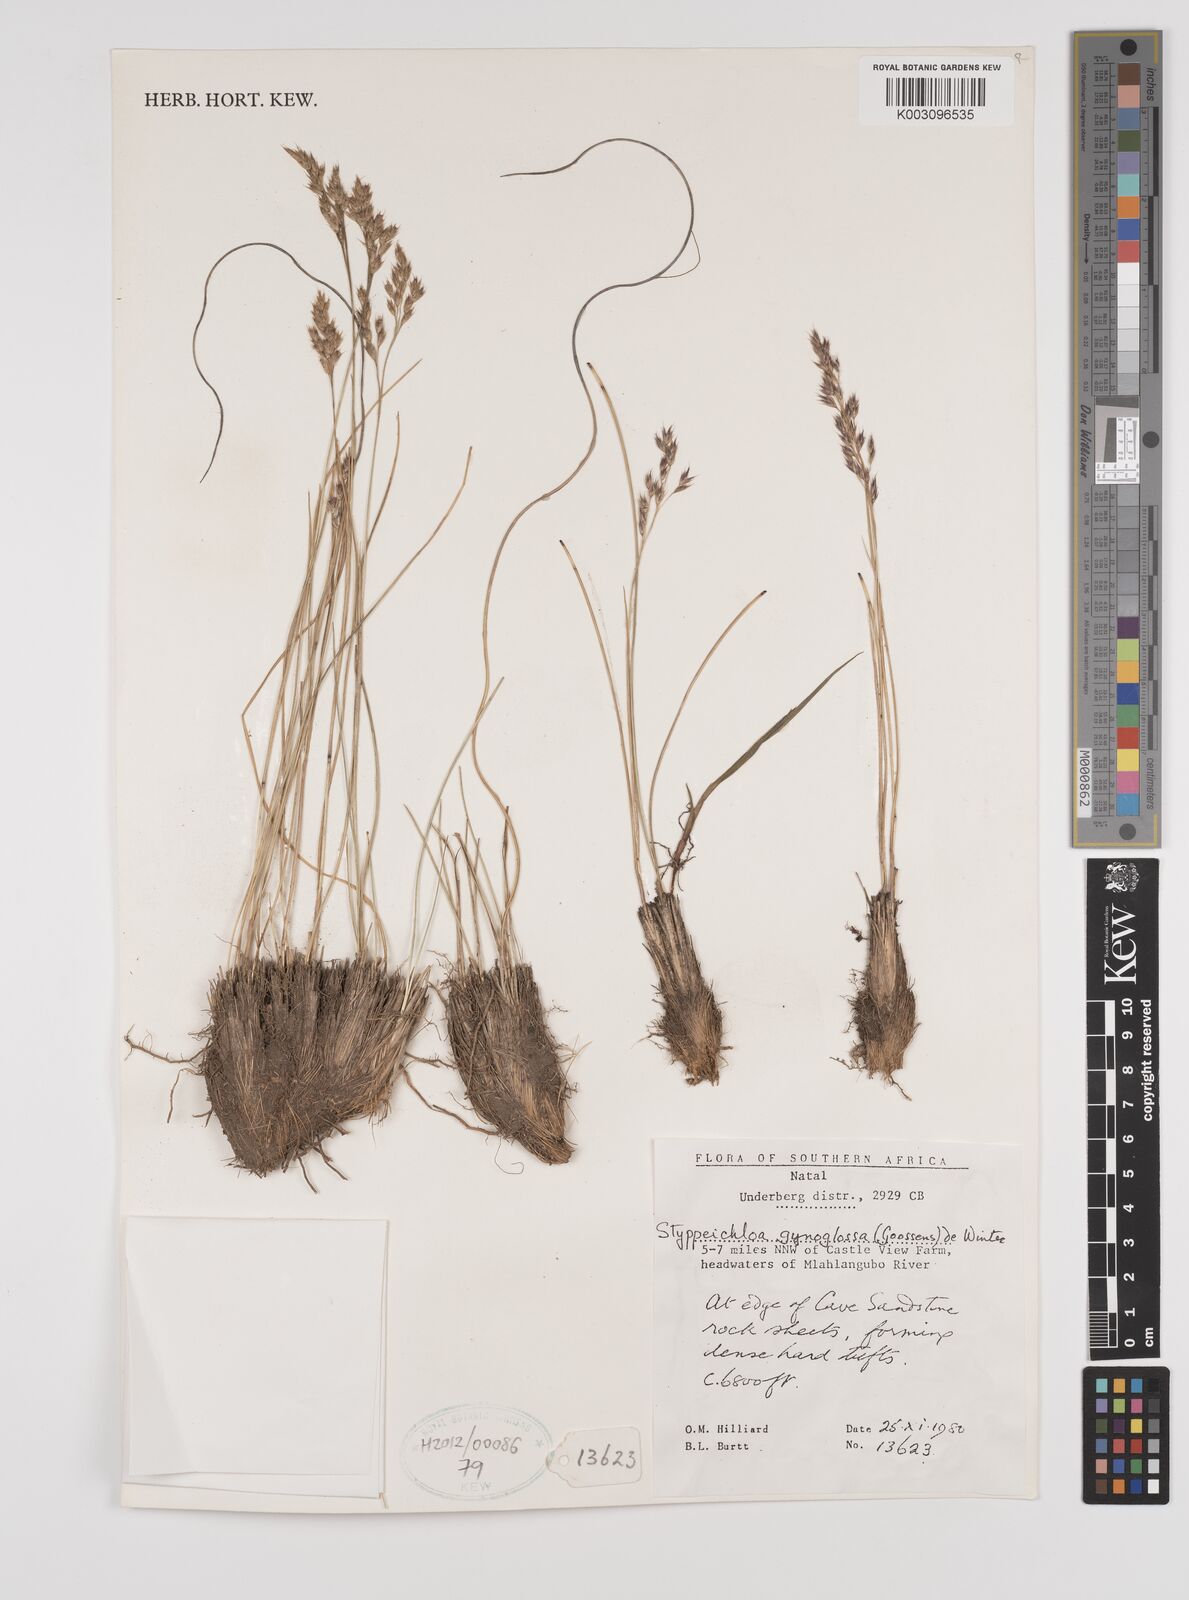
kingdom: Plantae
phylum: Tracheophyta
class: Liliopsida
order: Poales
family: Poaceae
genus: Styppeiochloa
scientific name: Styppeiochloa gynoglossa
